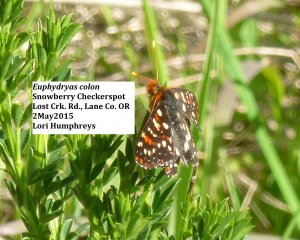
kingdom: Animalia
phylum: Arthropoda
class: Insecta
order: Lepidoptera
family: Nymphalidae
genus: Occidryas
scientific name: Occidryas colon
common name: Snowberry Checkerspot
